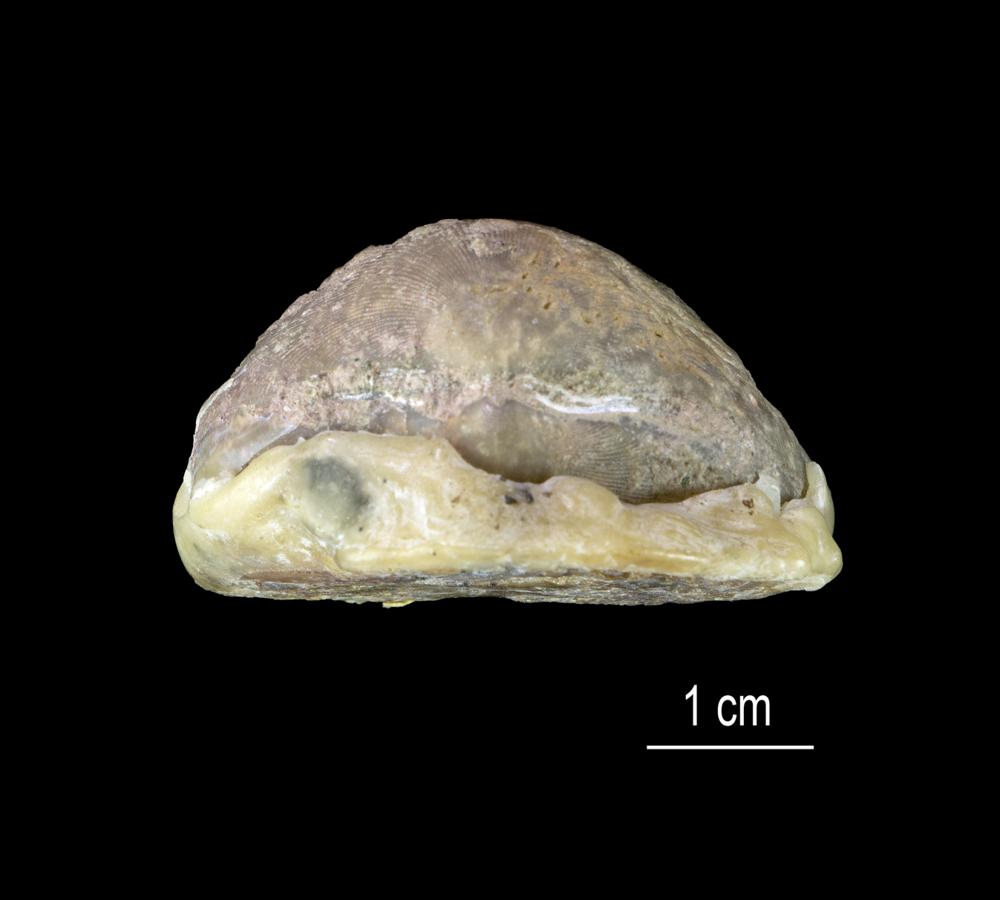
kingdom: Animalia
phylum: Brachiopoda
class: Rhynchonellata
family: Porambonitidae
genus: Porambonites
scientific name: Porambonites reticulata
